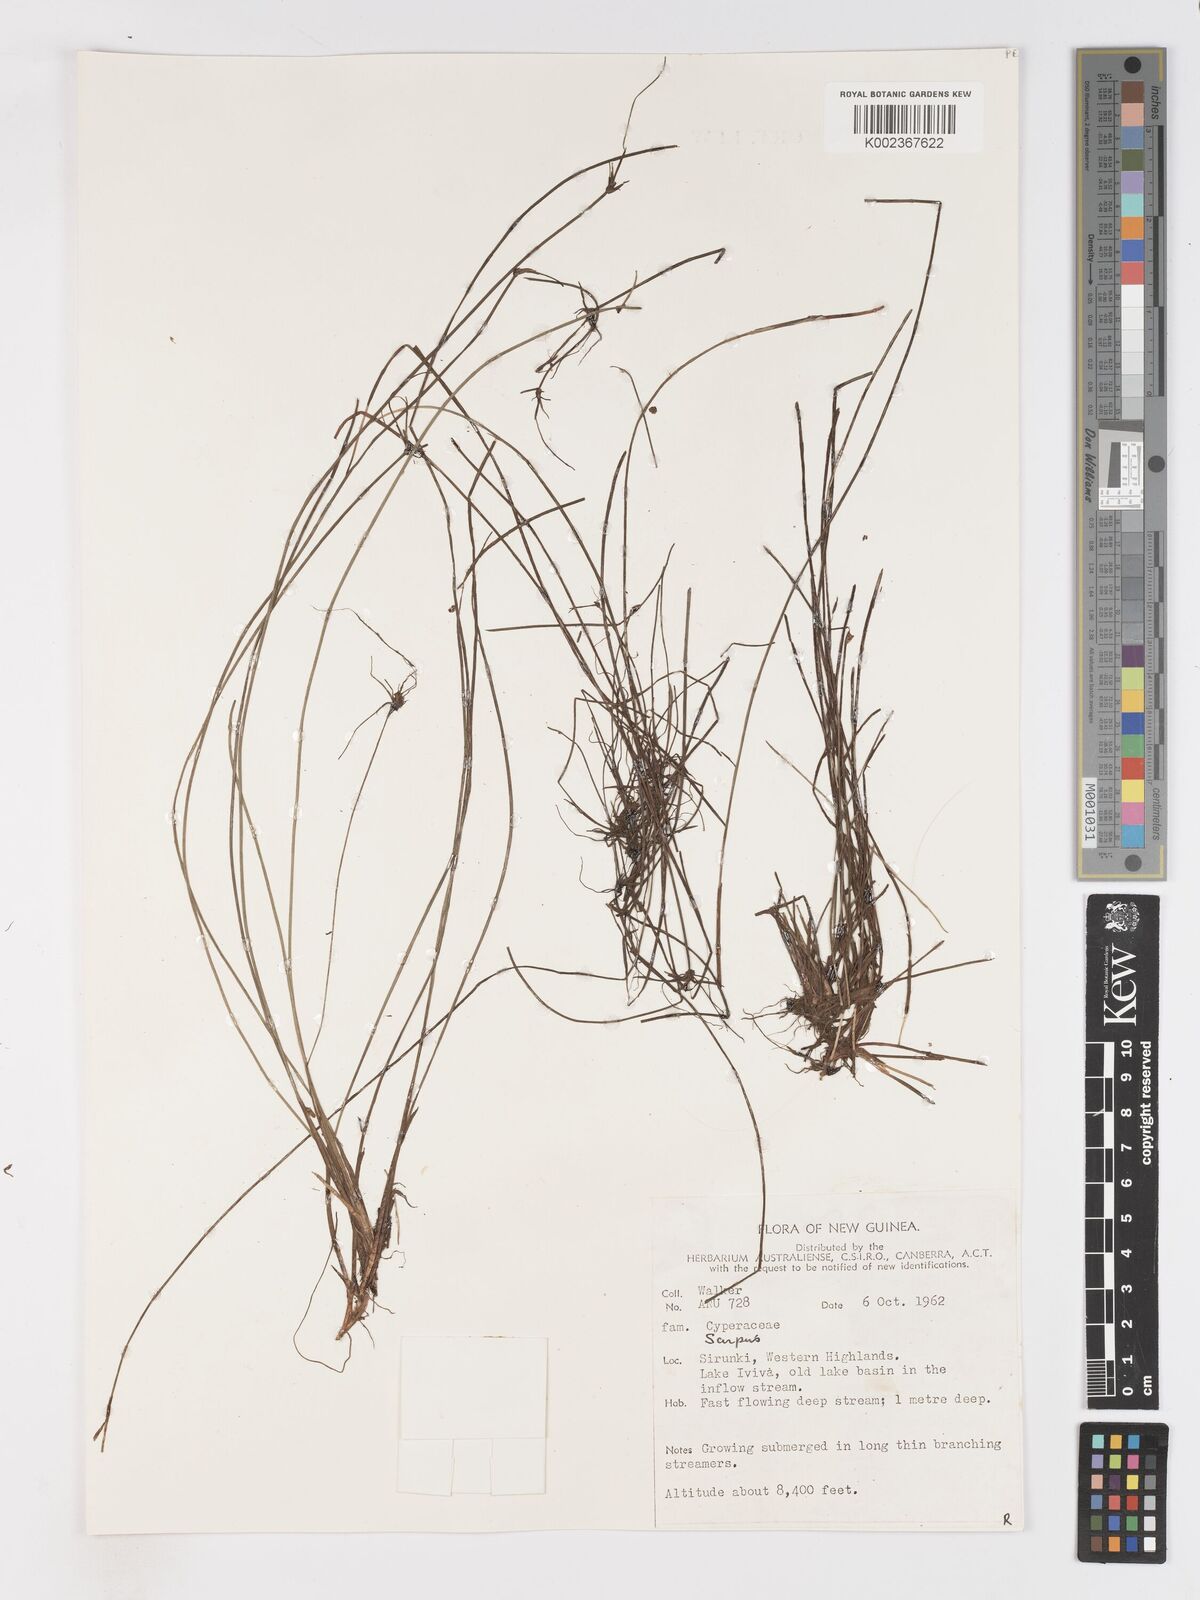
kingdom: Plantae
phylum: Tracheophyta
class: Liliopsida
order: Poales
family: Cyperaceae
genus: Isolepis
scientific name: Isolepis inundata
